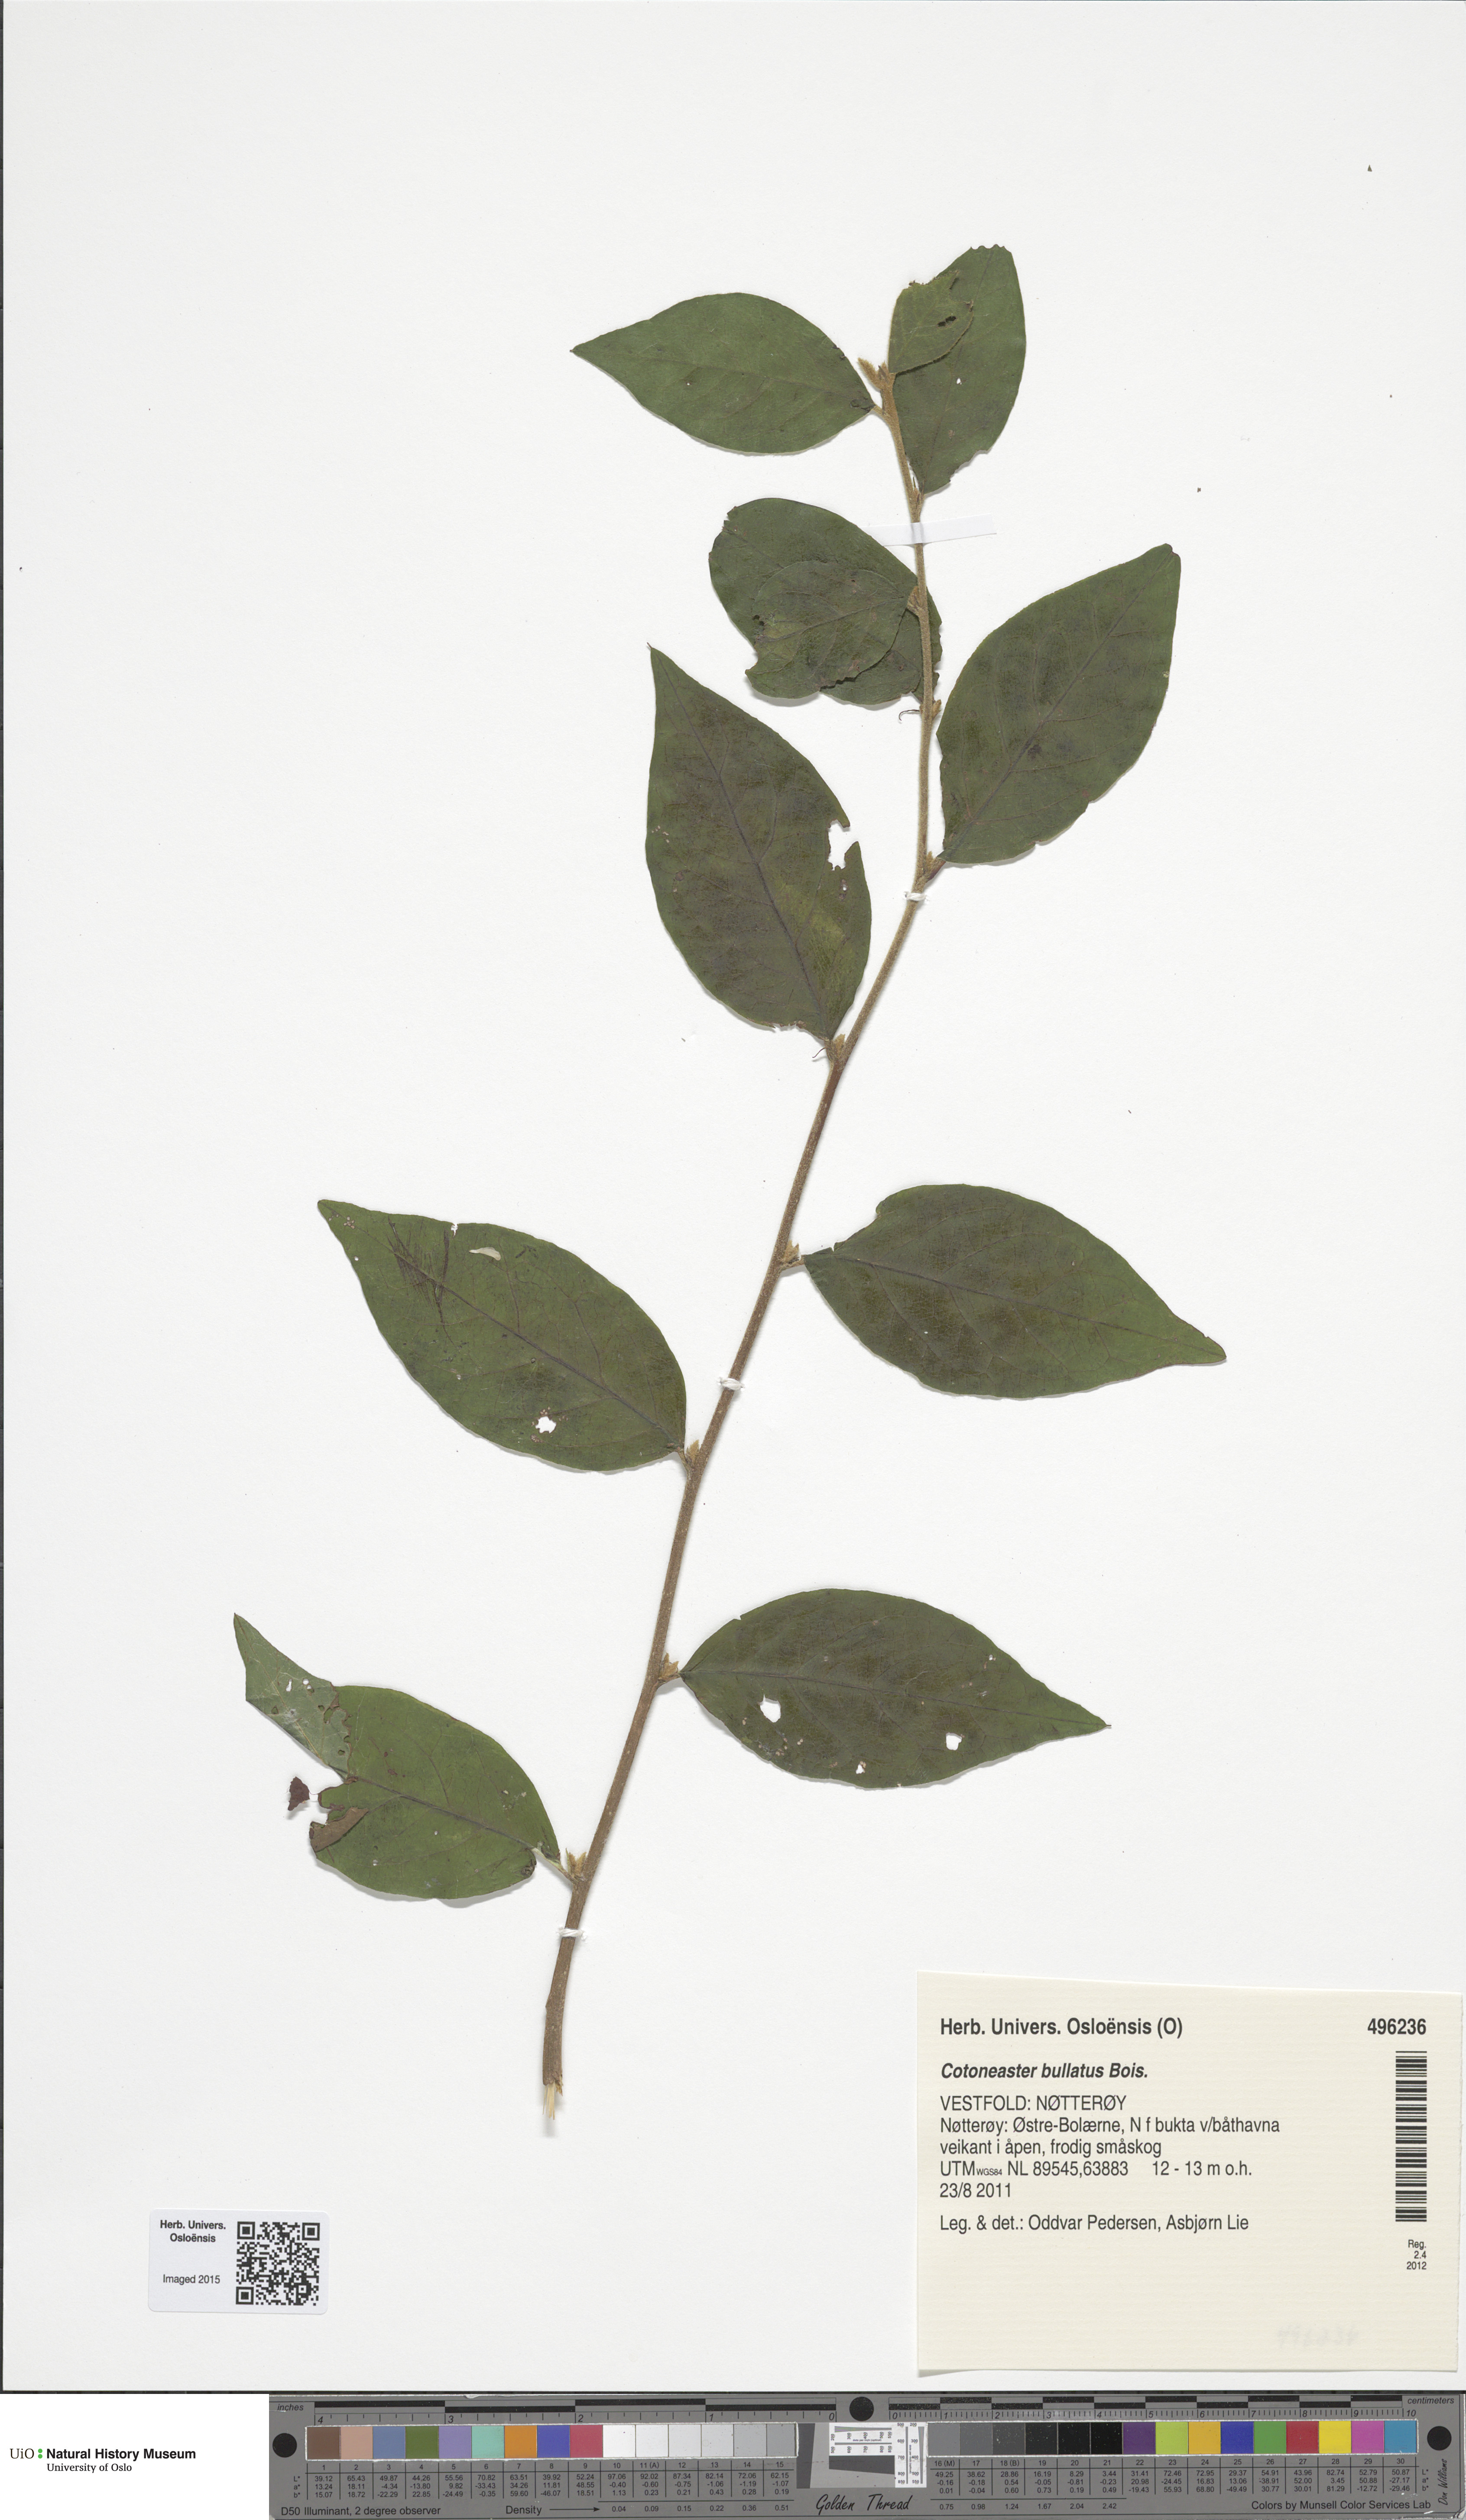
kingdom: Plantae
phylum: Tracheophyta
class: Magnoliopsida
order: Rosales
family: Rosaceae
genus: Cotoneaster
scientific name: Cotoneaster bullatus
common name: Hollyberry cotoneaster
